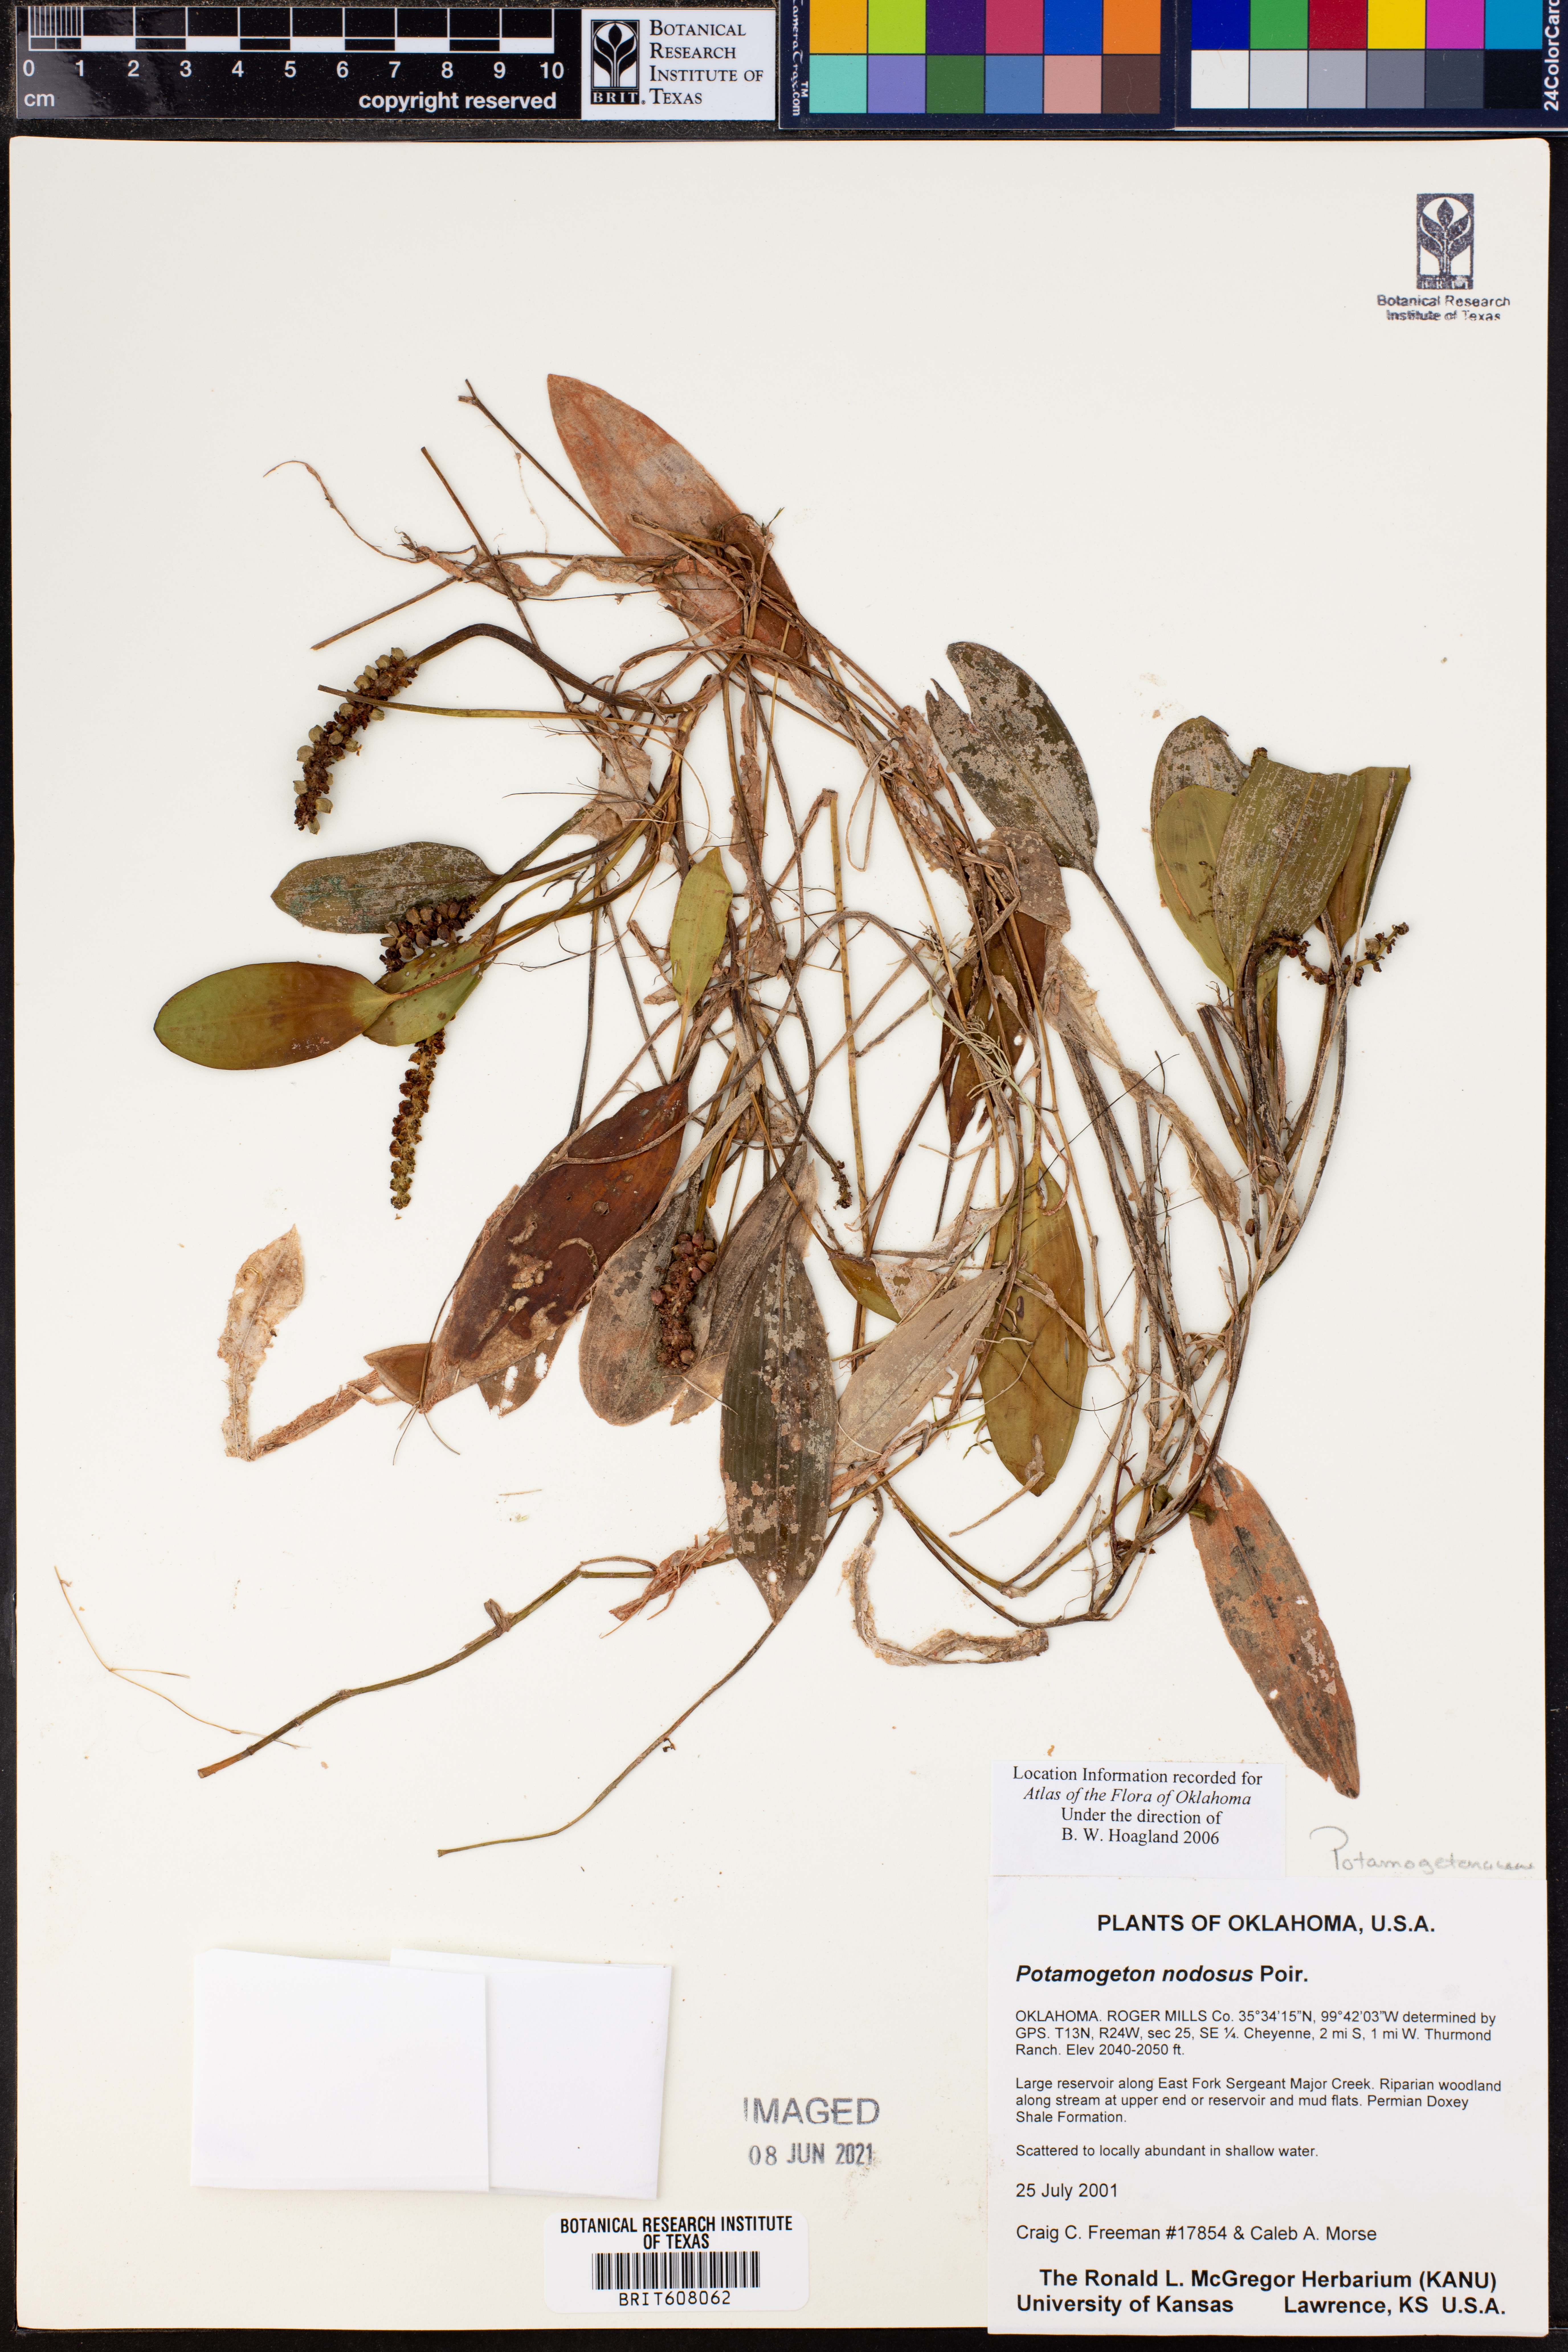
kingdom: Plantae
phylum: Tracheophyta
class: Liliopsida
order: Alismatales
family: Potamogetonaceae
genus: Potamogeton
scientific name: Potamogeton nodosus
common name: Loddon pondweed
